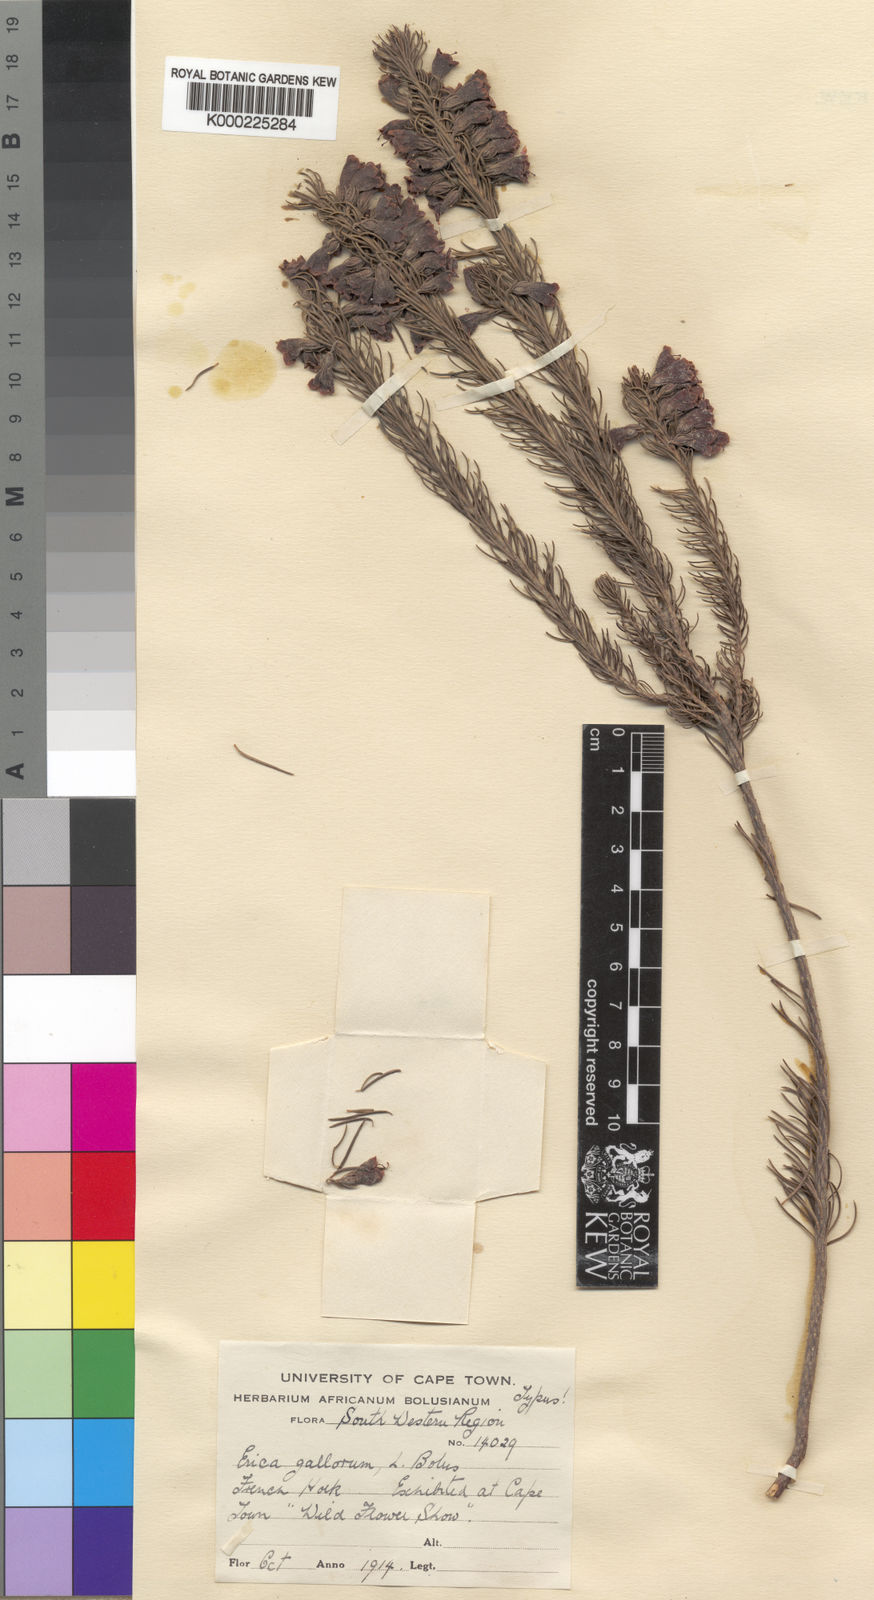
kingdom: Plantae
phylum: Tracheophyta
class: Magnoliopsida
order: Ericales
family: Ericaceae
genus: Erica
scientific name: Erica viscaria
